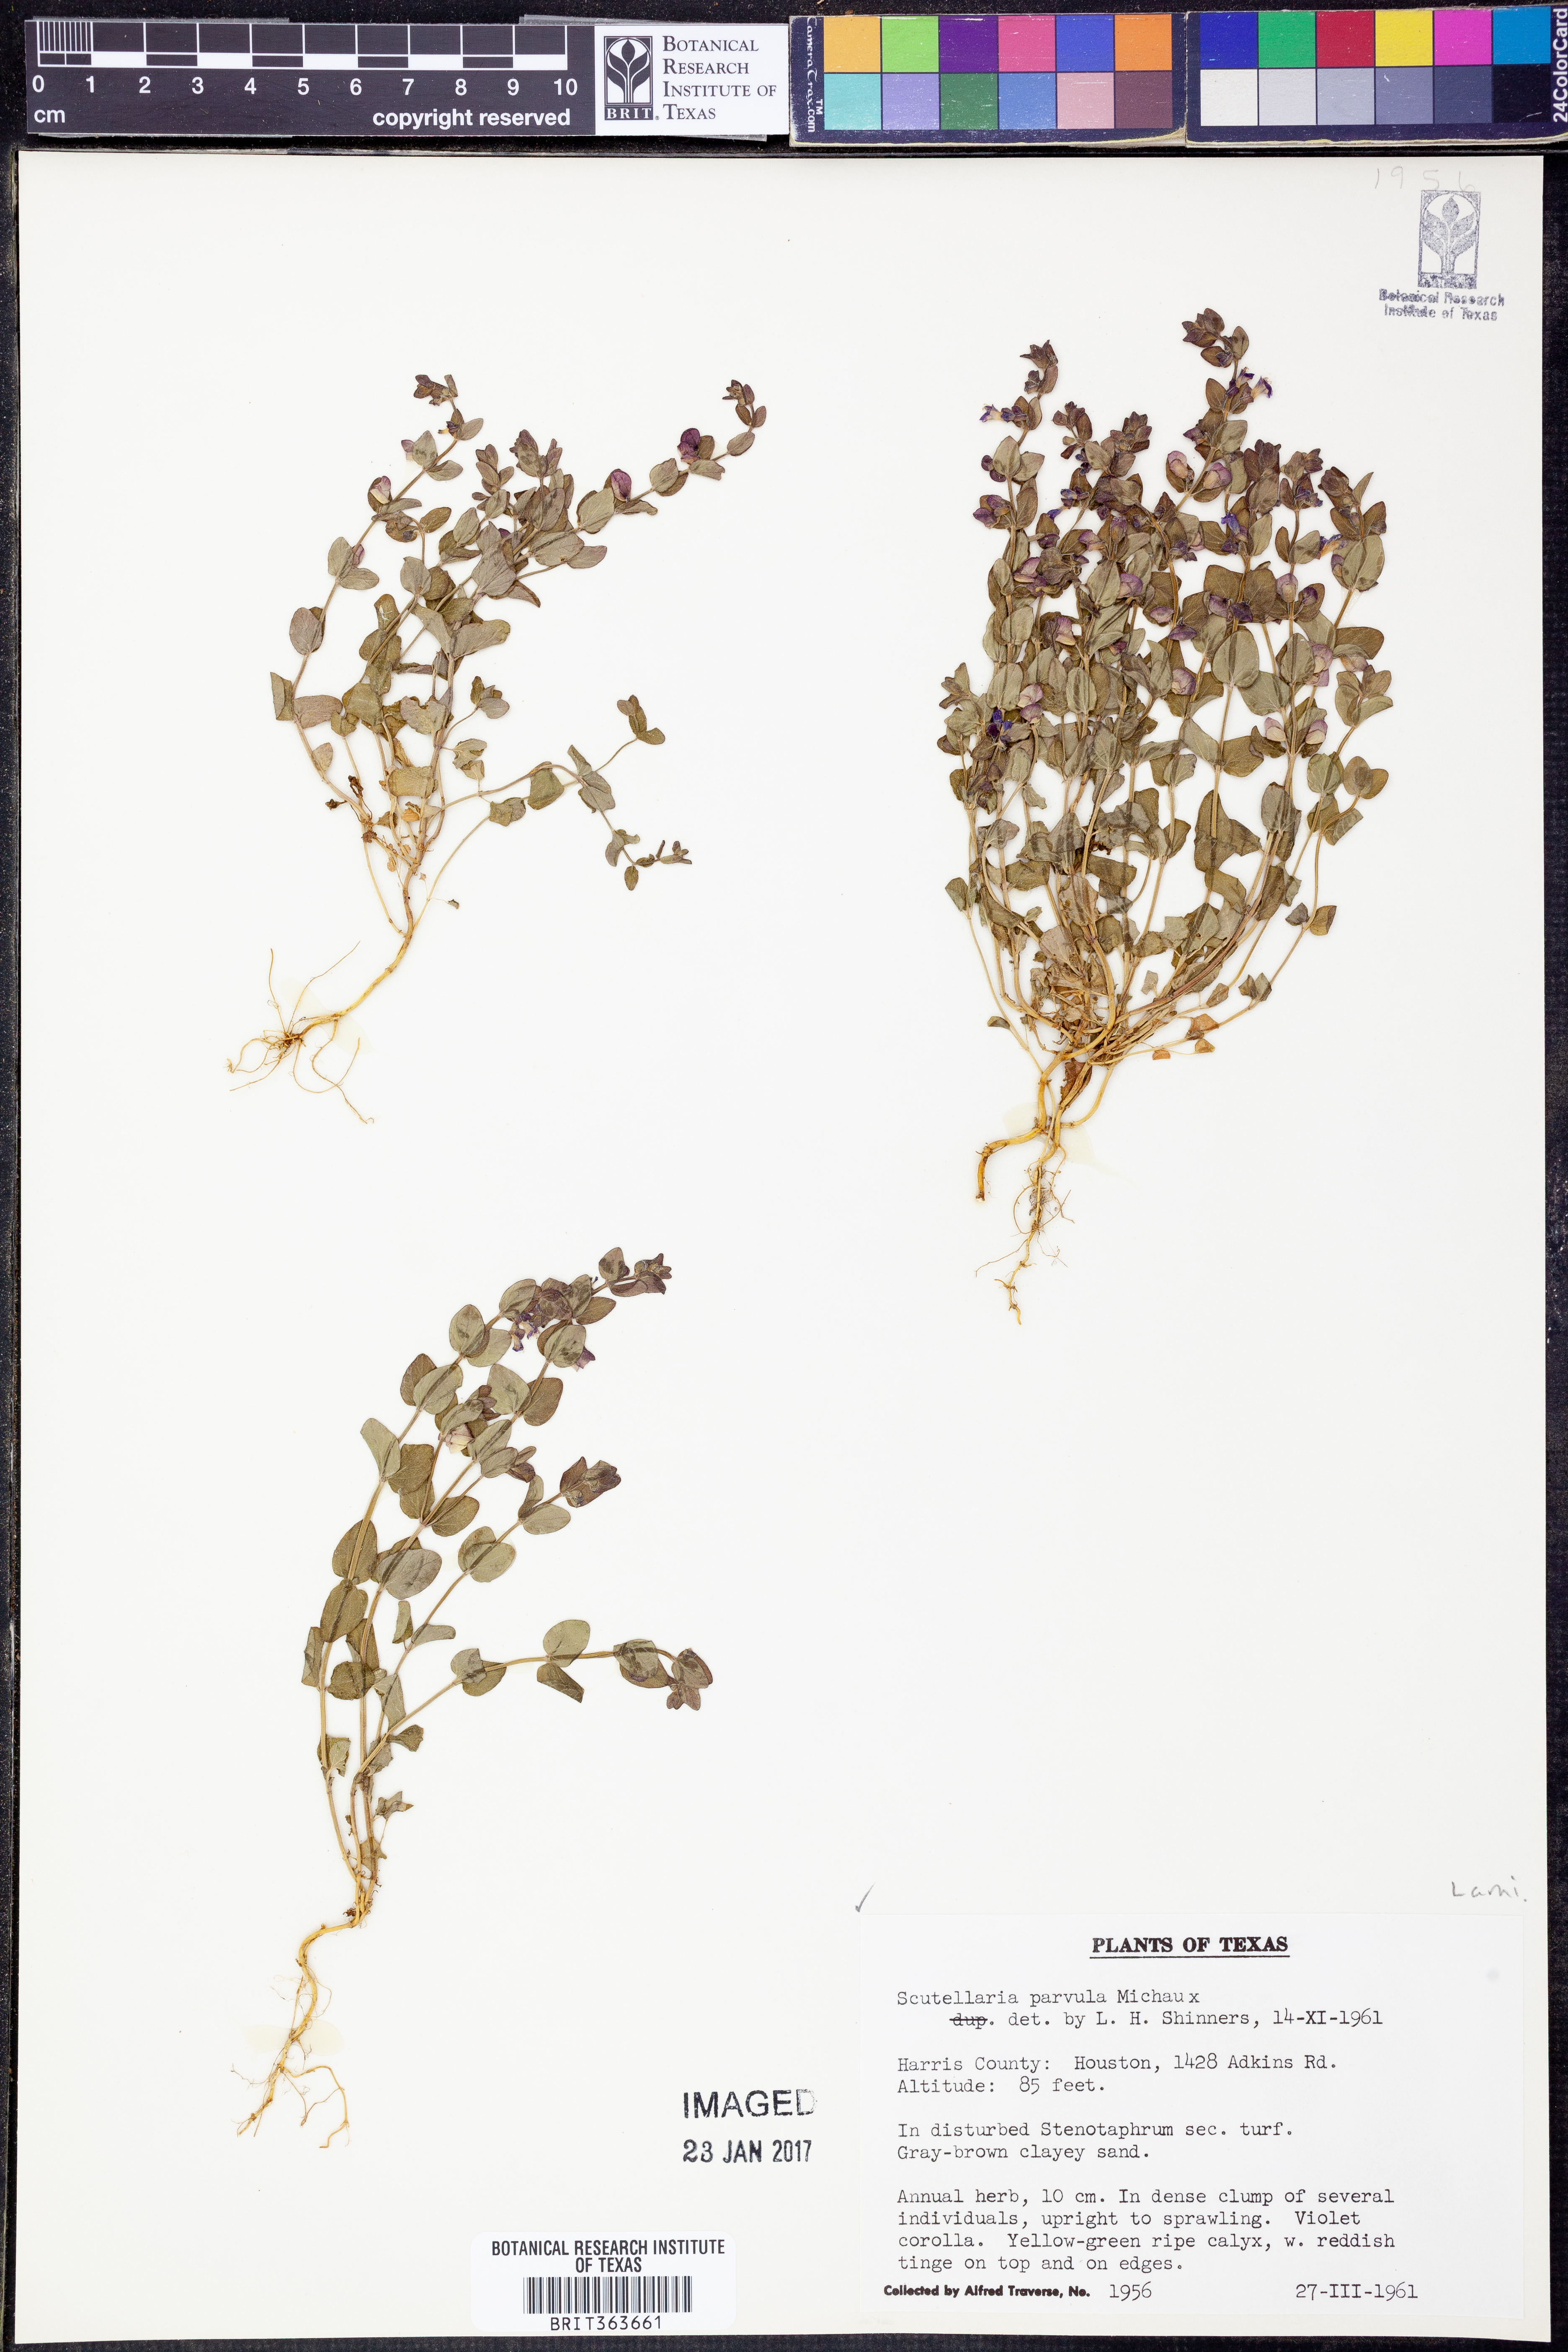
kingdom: Plantae
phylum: Tracheophyta
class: Magnoliopsida
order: Lamiales
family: Lamiaceae
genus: Scutellaria
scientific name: Scutellaria parvula
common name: Little scullcap
